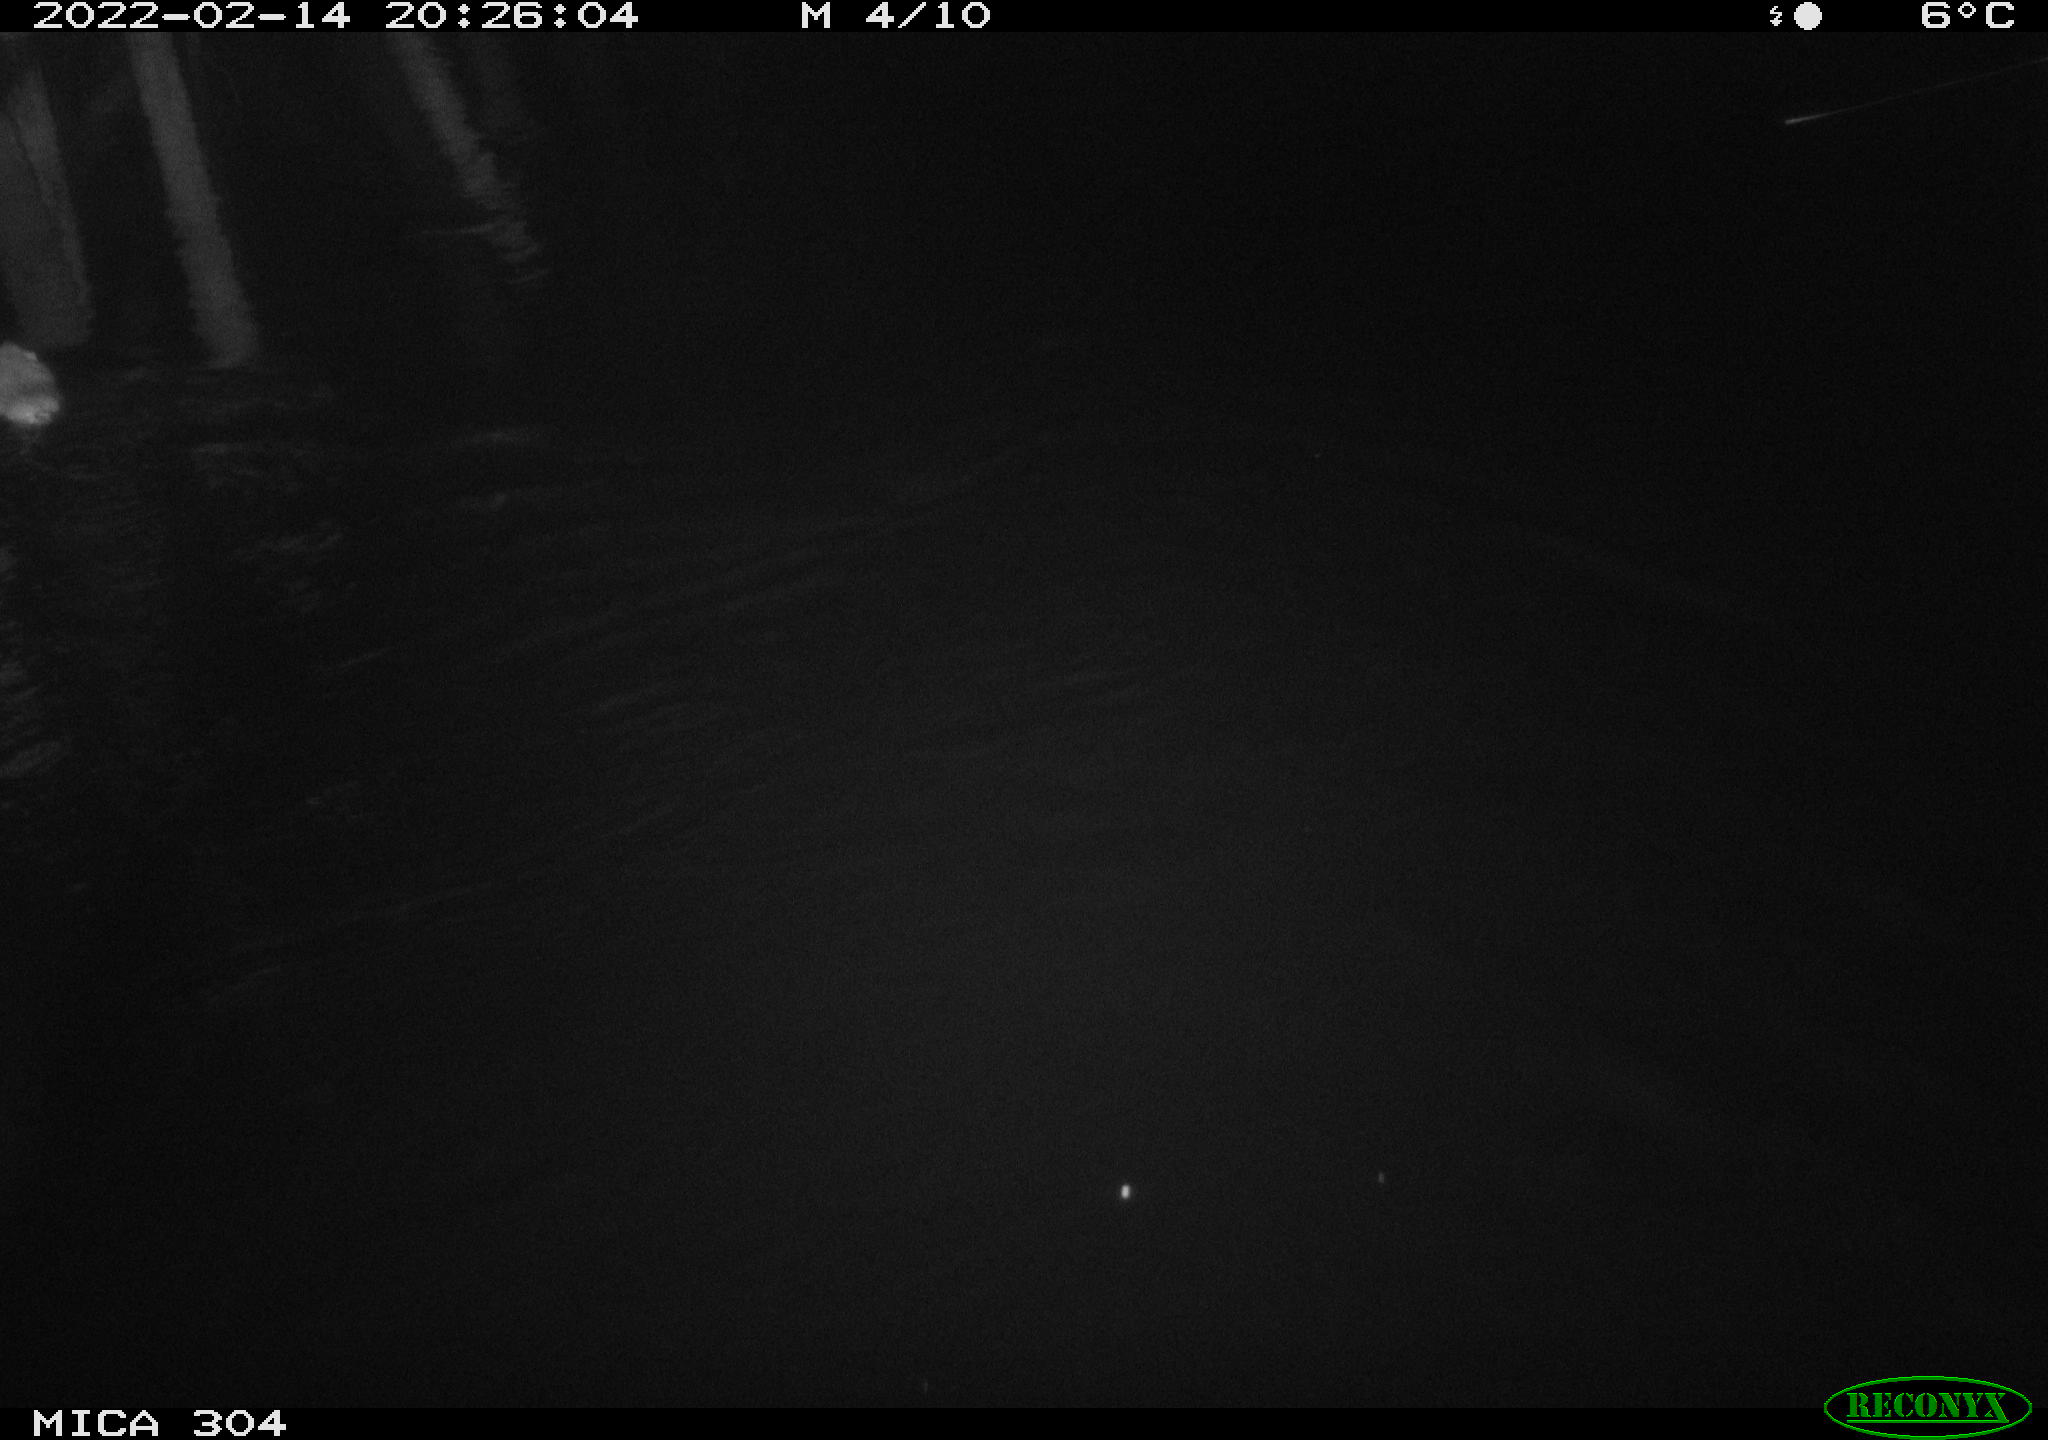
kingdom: Animalia
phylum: Chordata
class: Mammalia
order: Rodentia
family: Muridae
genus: Rattus
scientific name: Rattus norvegicus
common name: Brown rat
